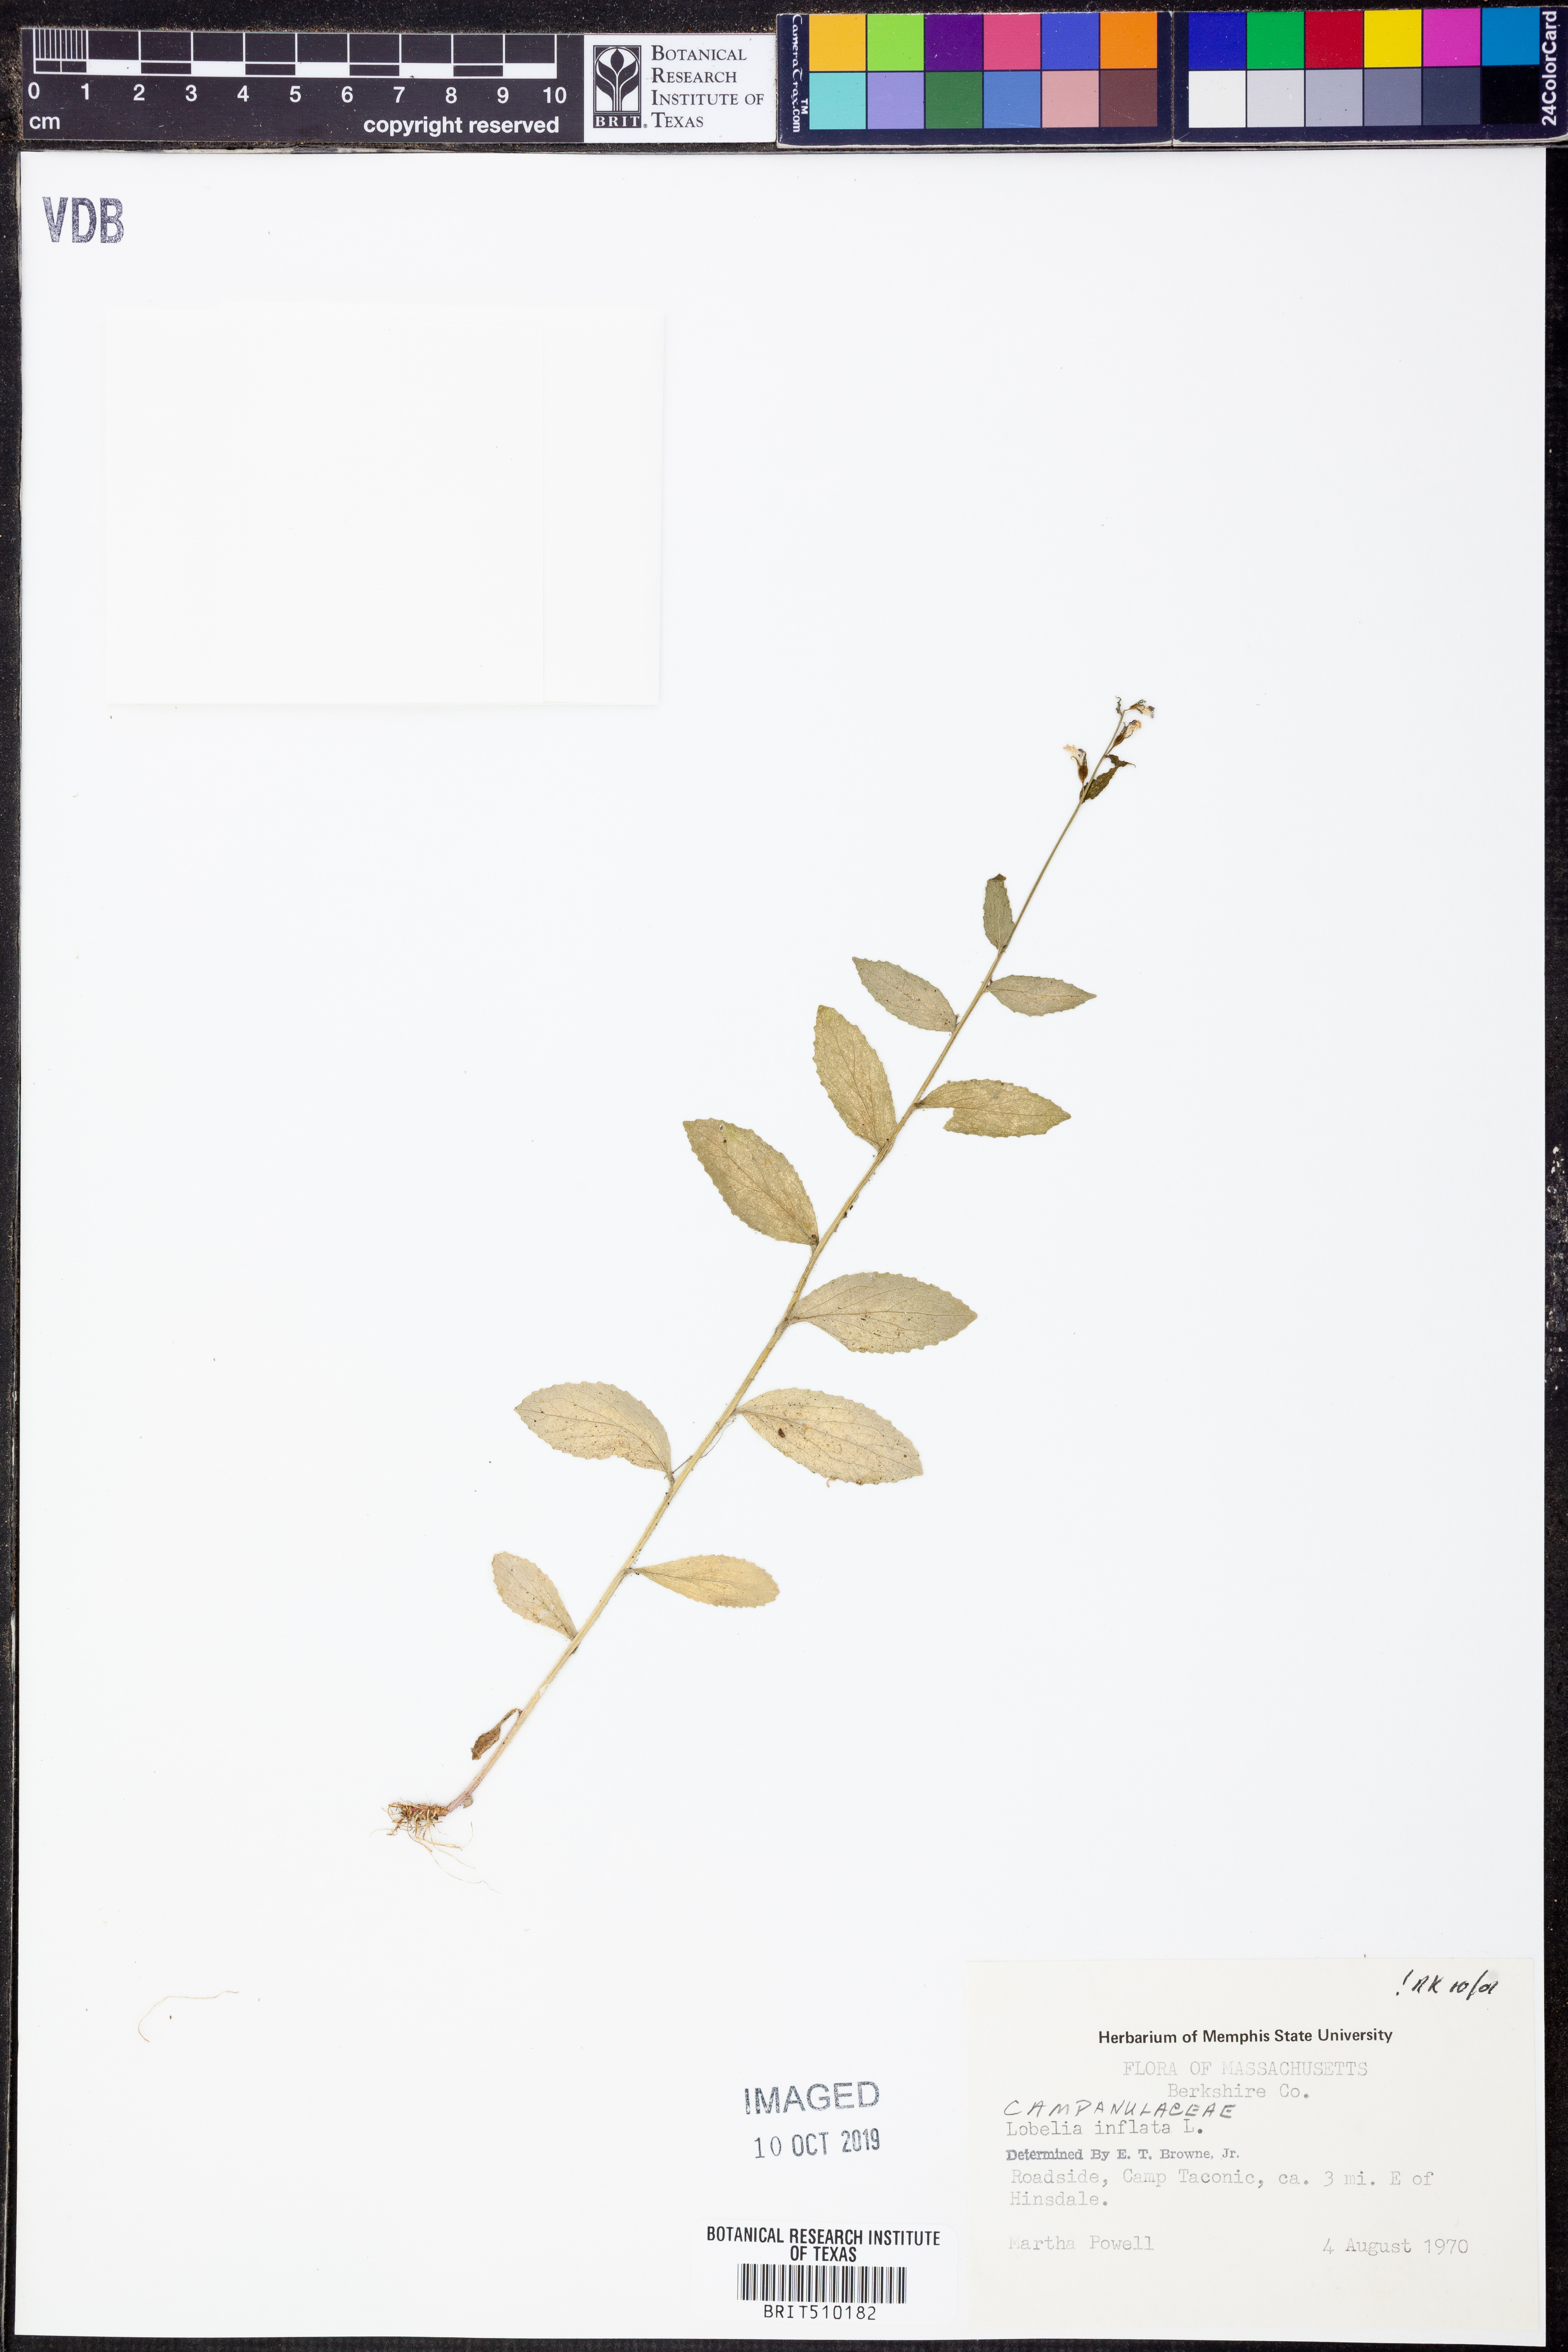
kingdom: Plantae
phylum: Tracheophyta
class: Magnoliopsida
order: Asterales
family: Campanulaceae
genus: Lobelia
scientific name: Lobelia inflata
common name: Indian tobacco
